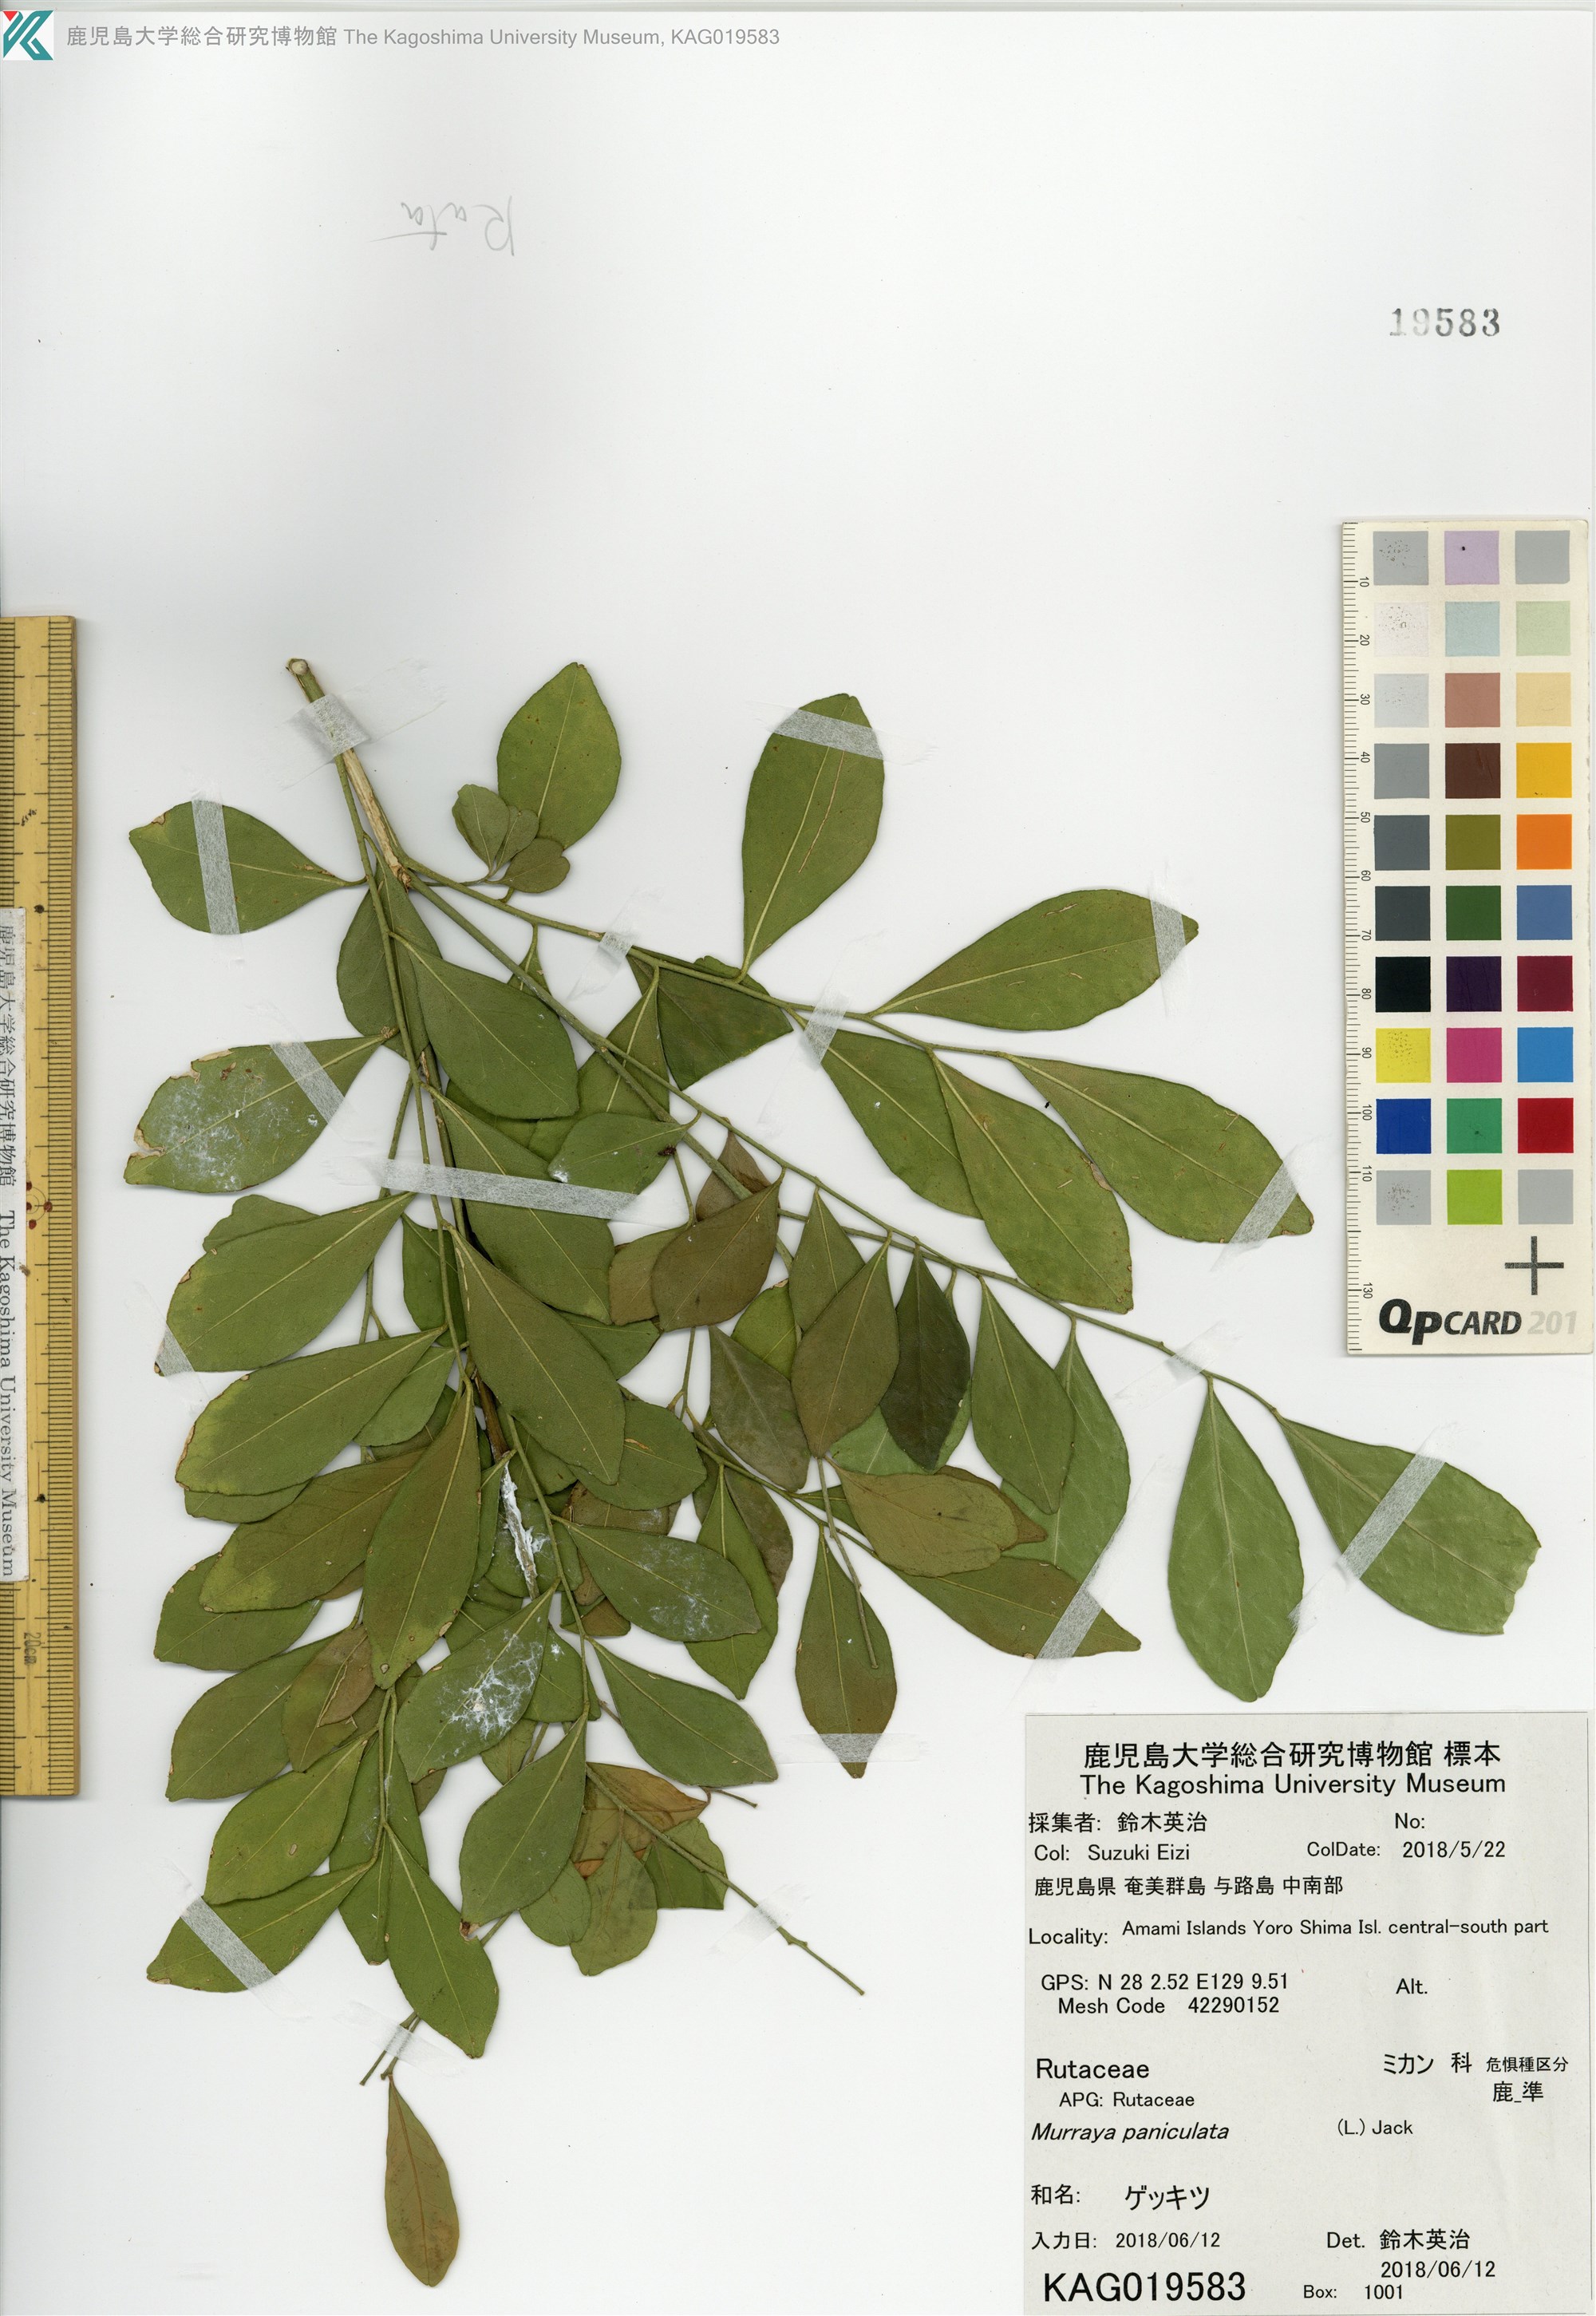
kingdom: Plantae
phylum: Tracheophyta
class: Magnoliopsida
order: Sapindales
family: Rutaceae
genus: Murraya
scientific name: Murraya paniculata
